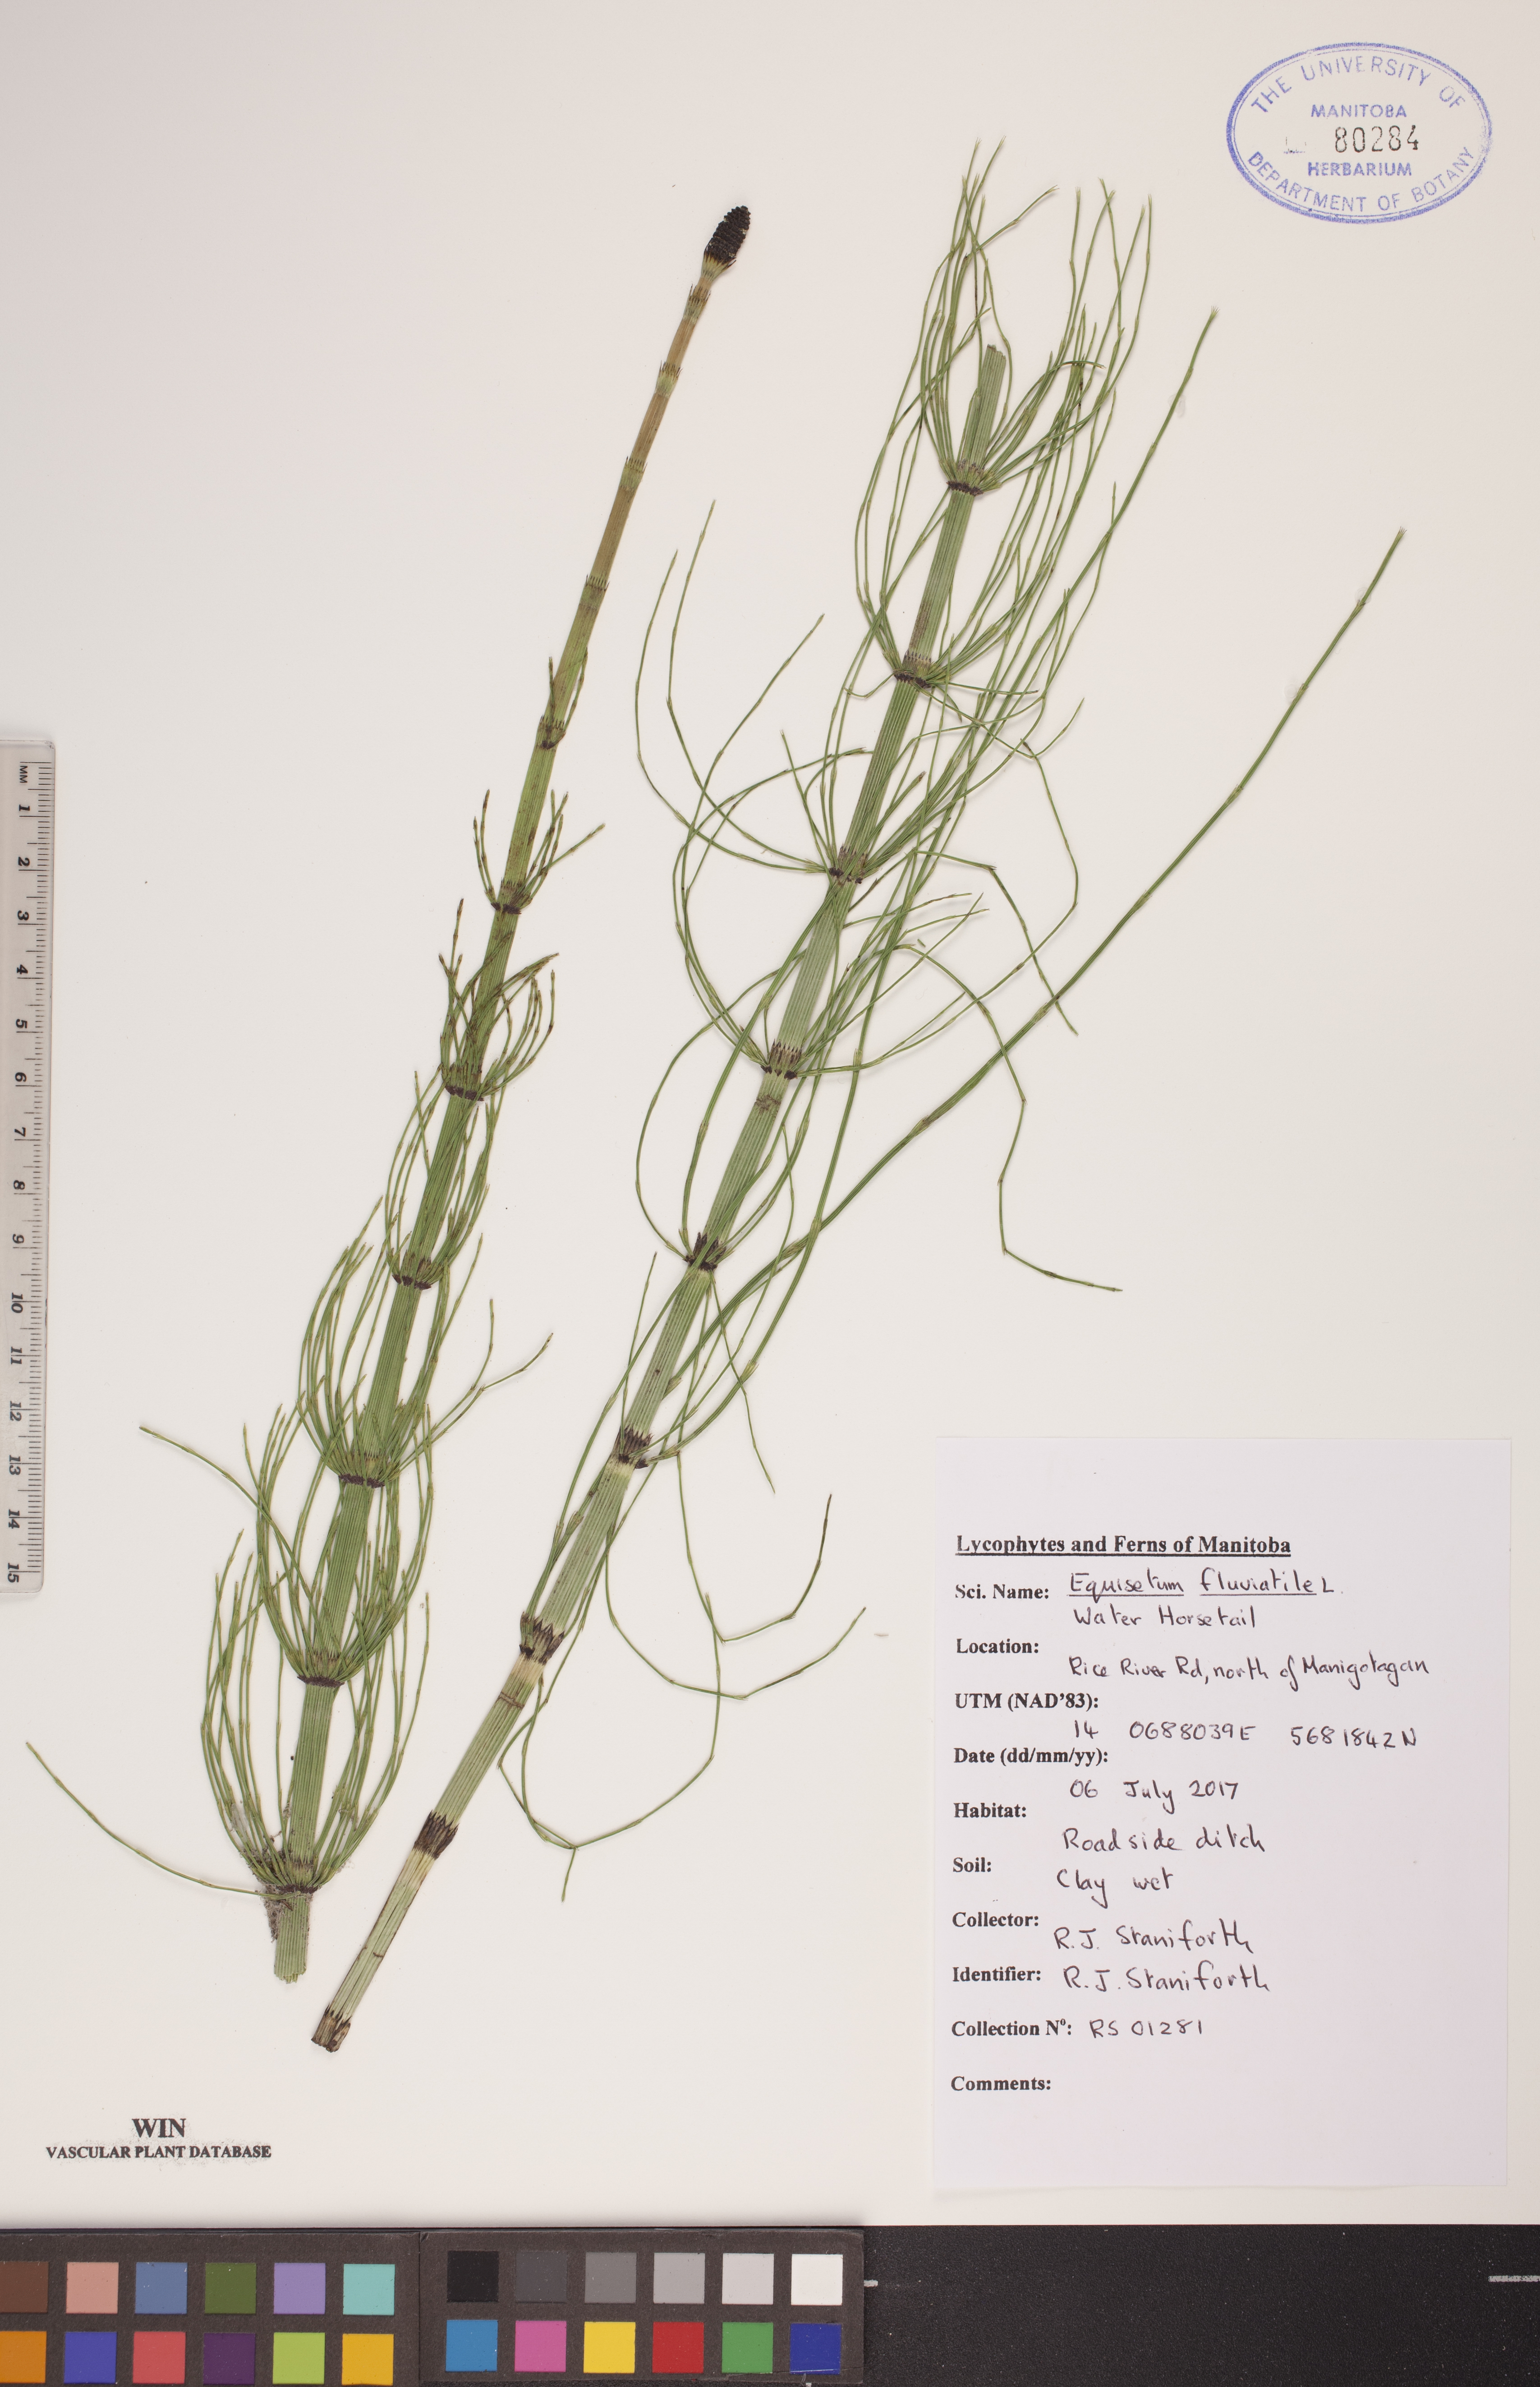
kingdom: Plantae
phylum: Tracheophyta
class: Polypodiopsida
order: Equisetales
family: Equisetaceae
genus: Equisetum
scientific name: Equisetum fluviatile
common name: Water horsetail
